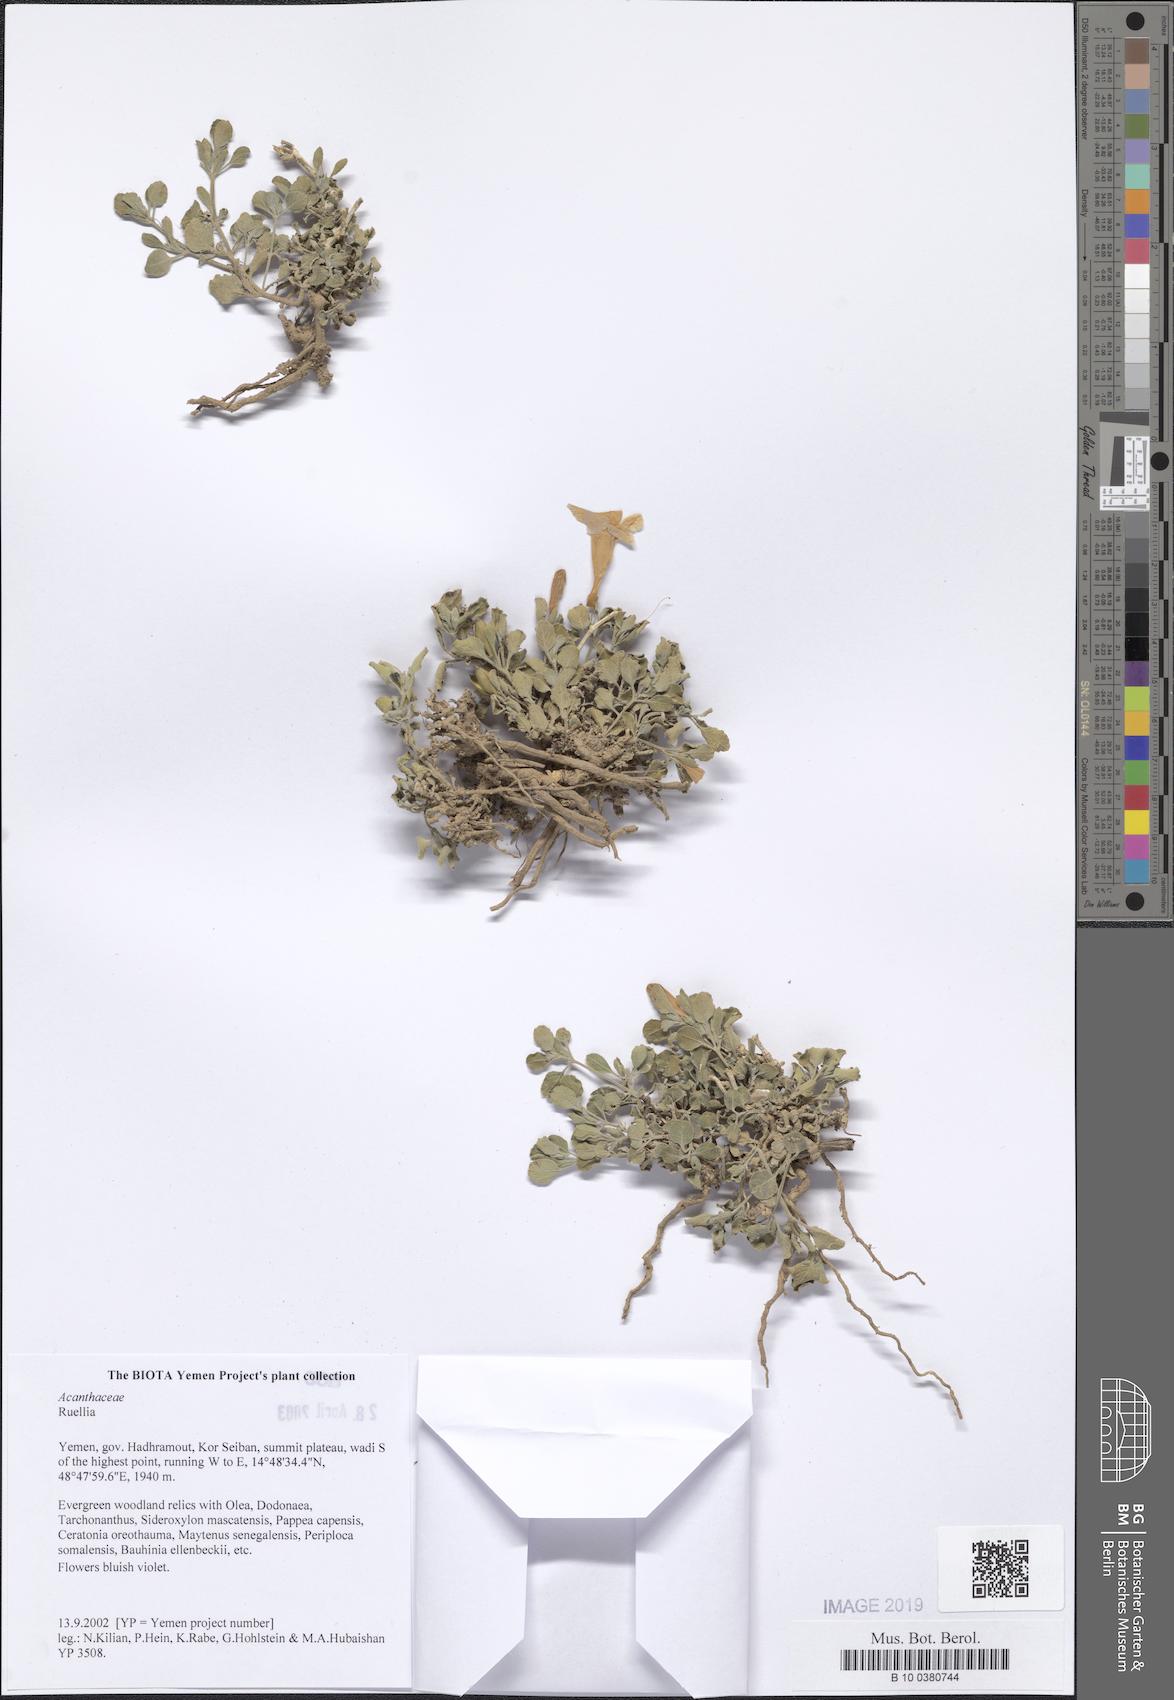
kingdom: Plantae
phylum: Tracheophyta
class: Magnoliopsida
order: Lamiales
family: Acanthaceae
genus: Ruellia
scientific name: Ruellia
